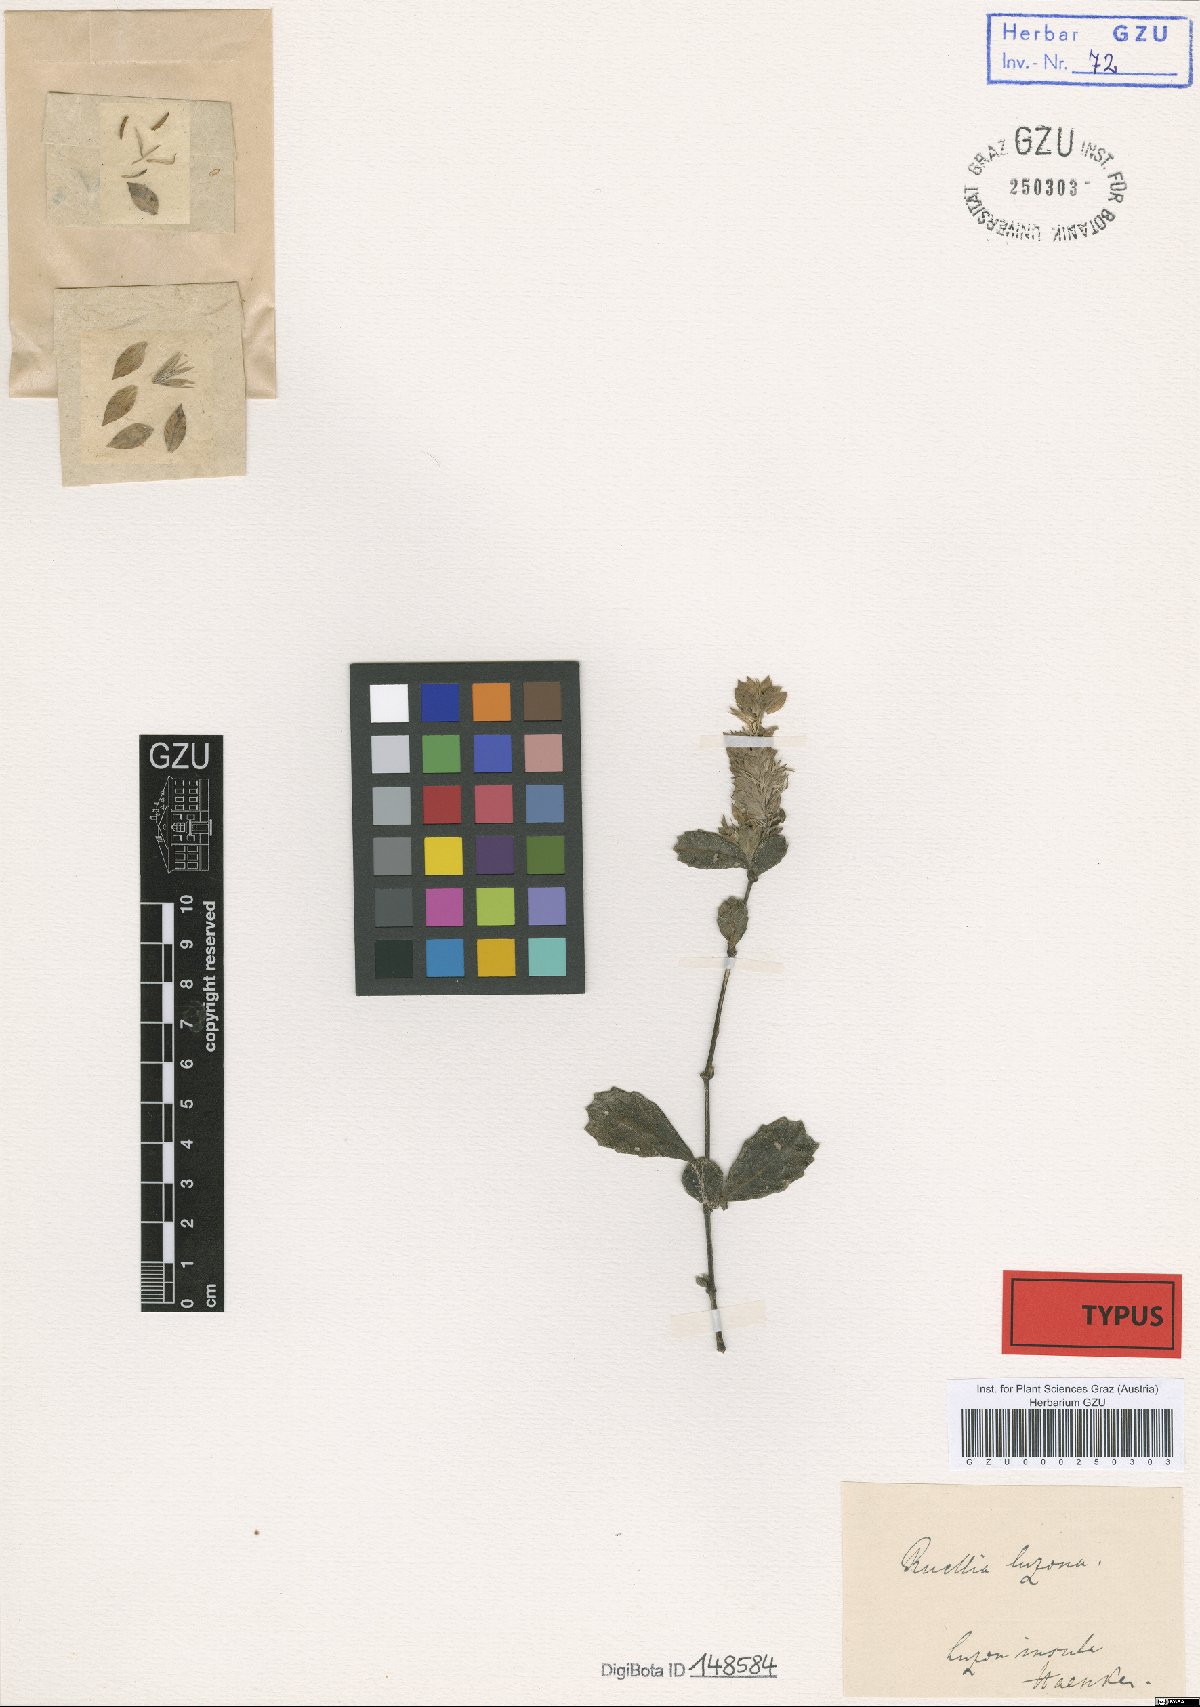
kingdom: Plantae
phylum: Tracheophyta
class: Magnoliopsida
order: Lamiales
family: Acanthaceae
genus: Ruellia
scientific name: Ruellia luzona
